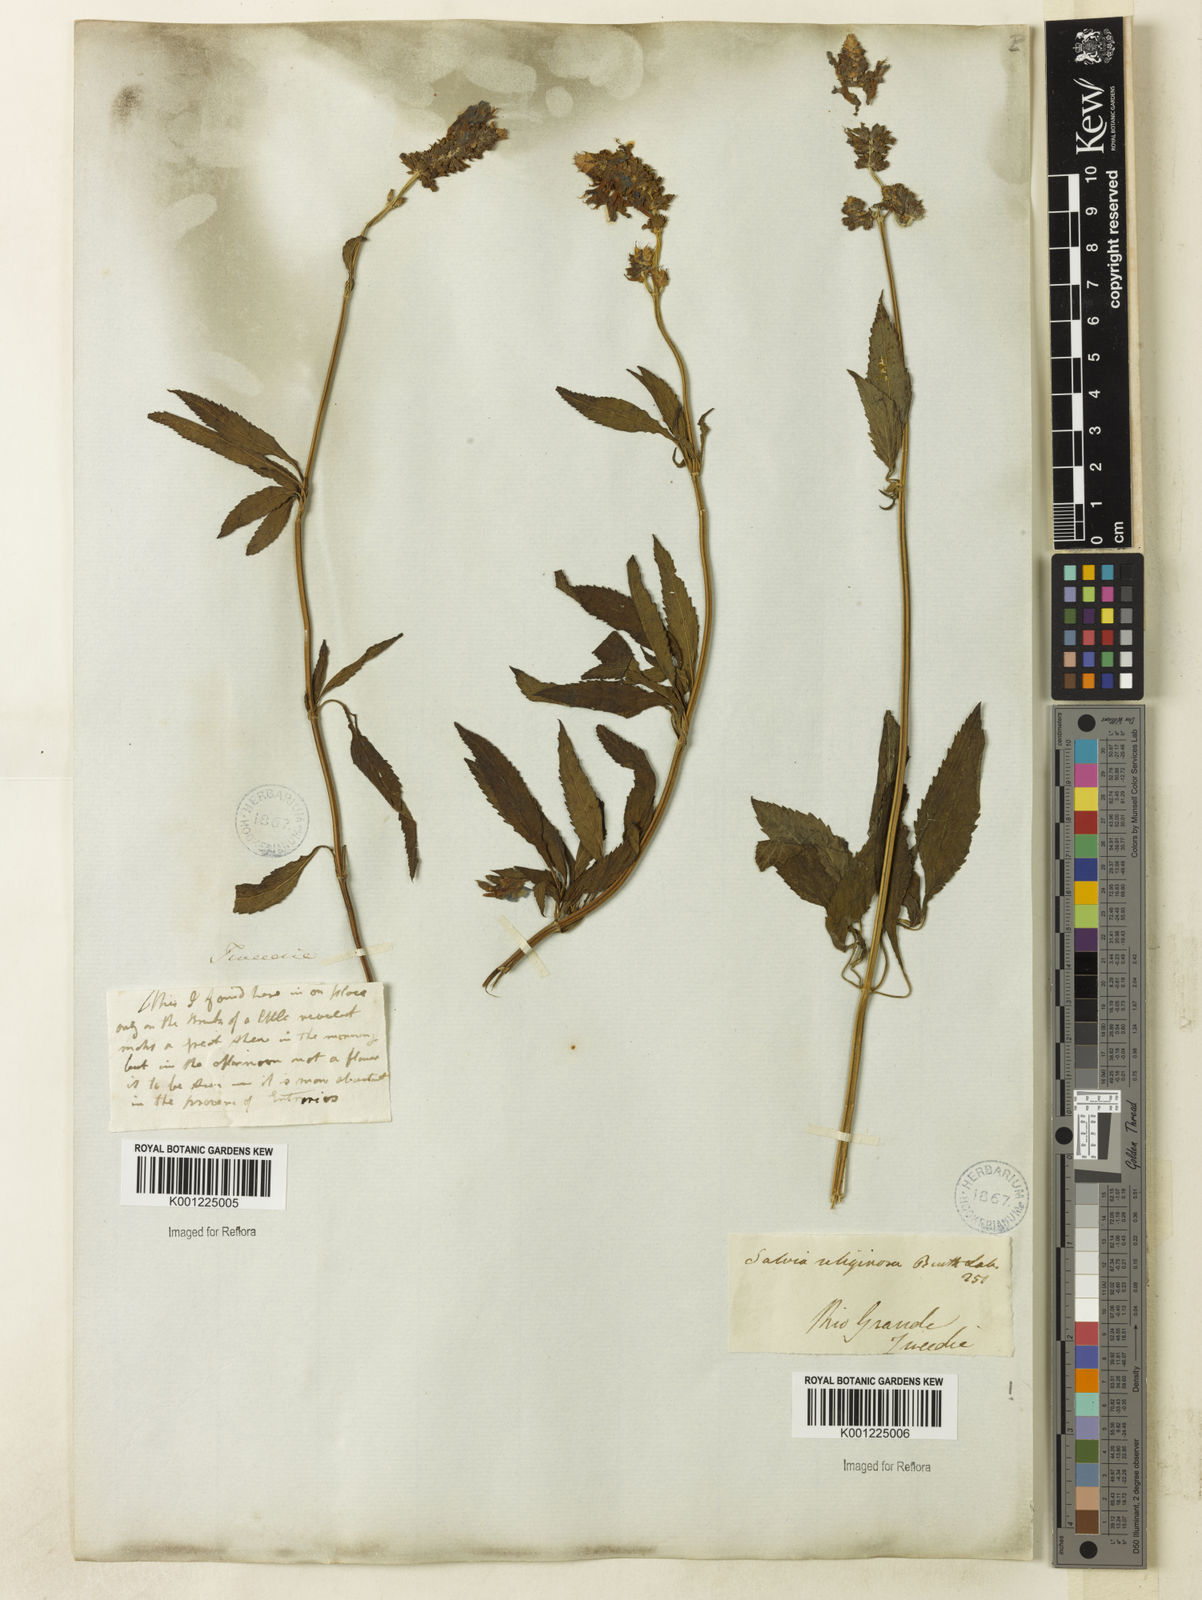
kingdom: Plantae
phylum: Tracheophyta
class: Magnoliopsida
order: Lamiales
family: Lamiaceae
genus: Salvia
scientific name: Salvia uliginosa
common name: Bog sage
